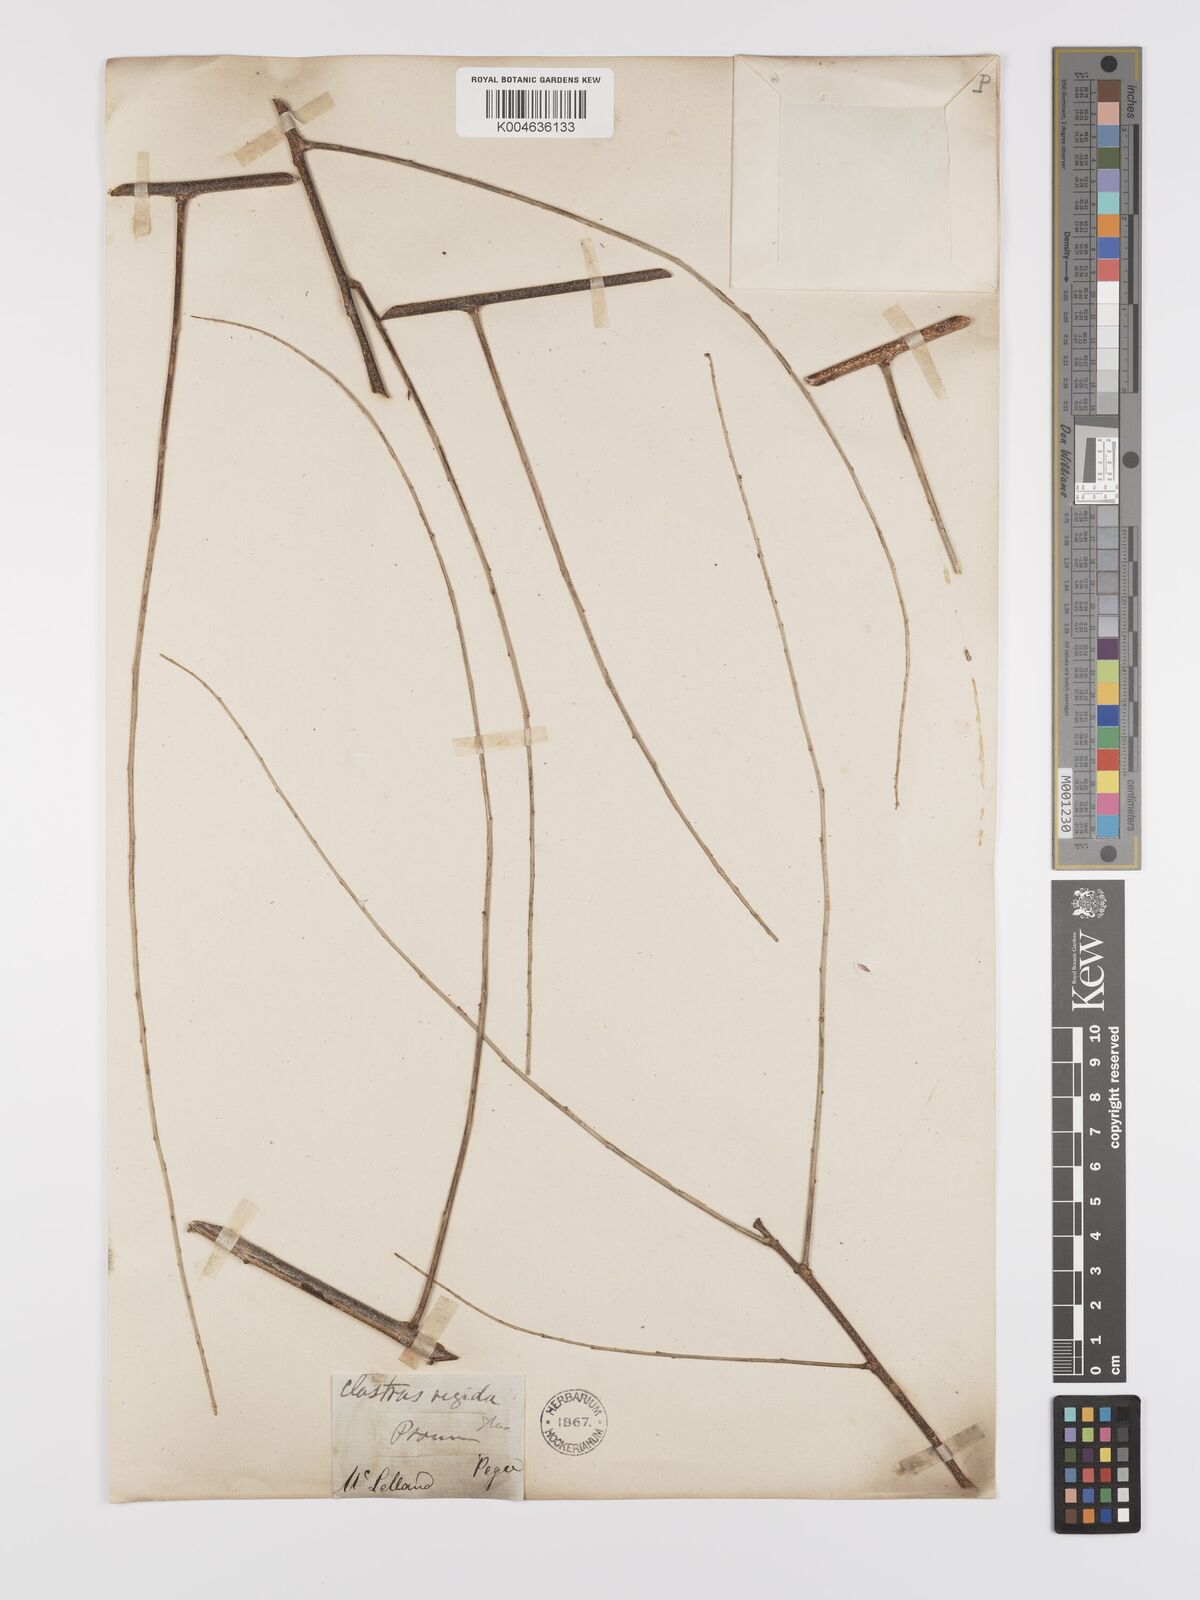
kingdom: Plantae
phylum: Tracheophyta
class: Magnoliopsida
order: Celastrales
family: Celastraceae
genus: Celastrus
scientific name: Celastrus paniculatus
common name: Oriental bittersweet; staff vine
